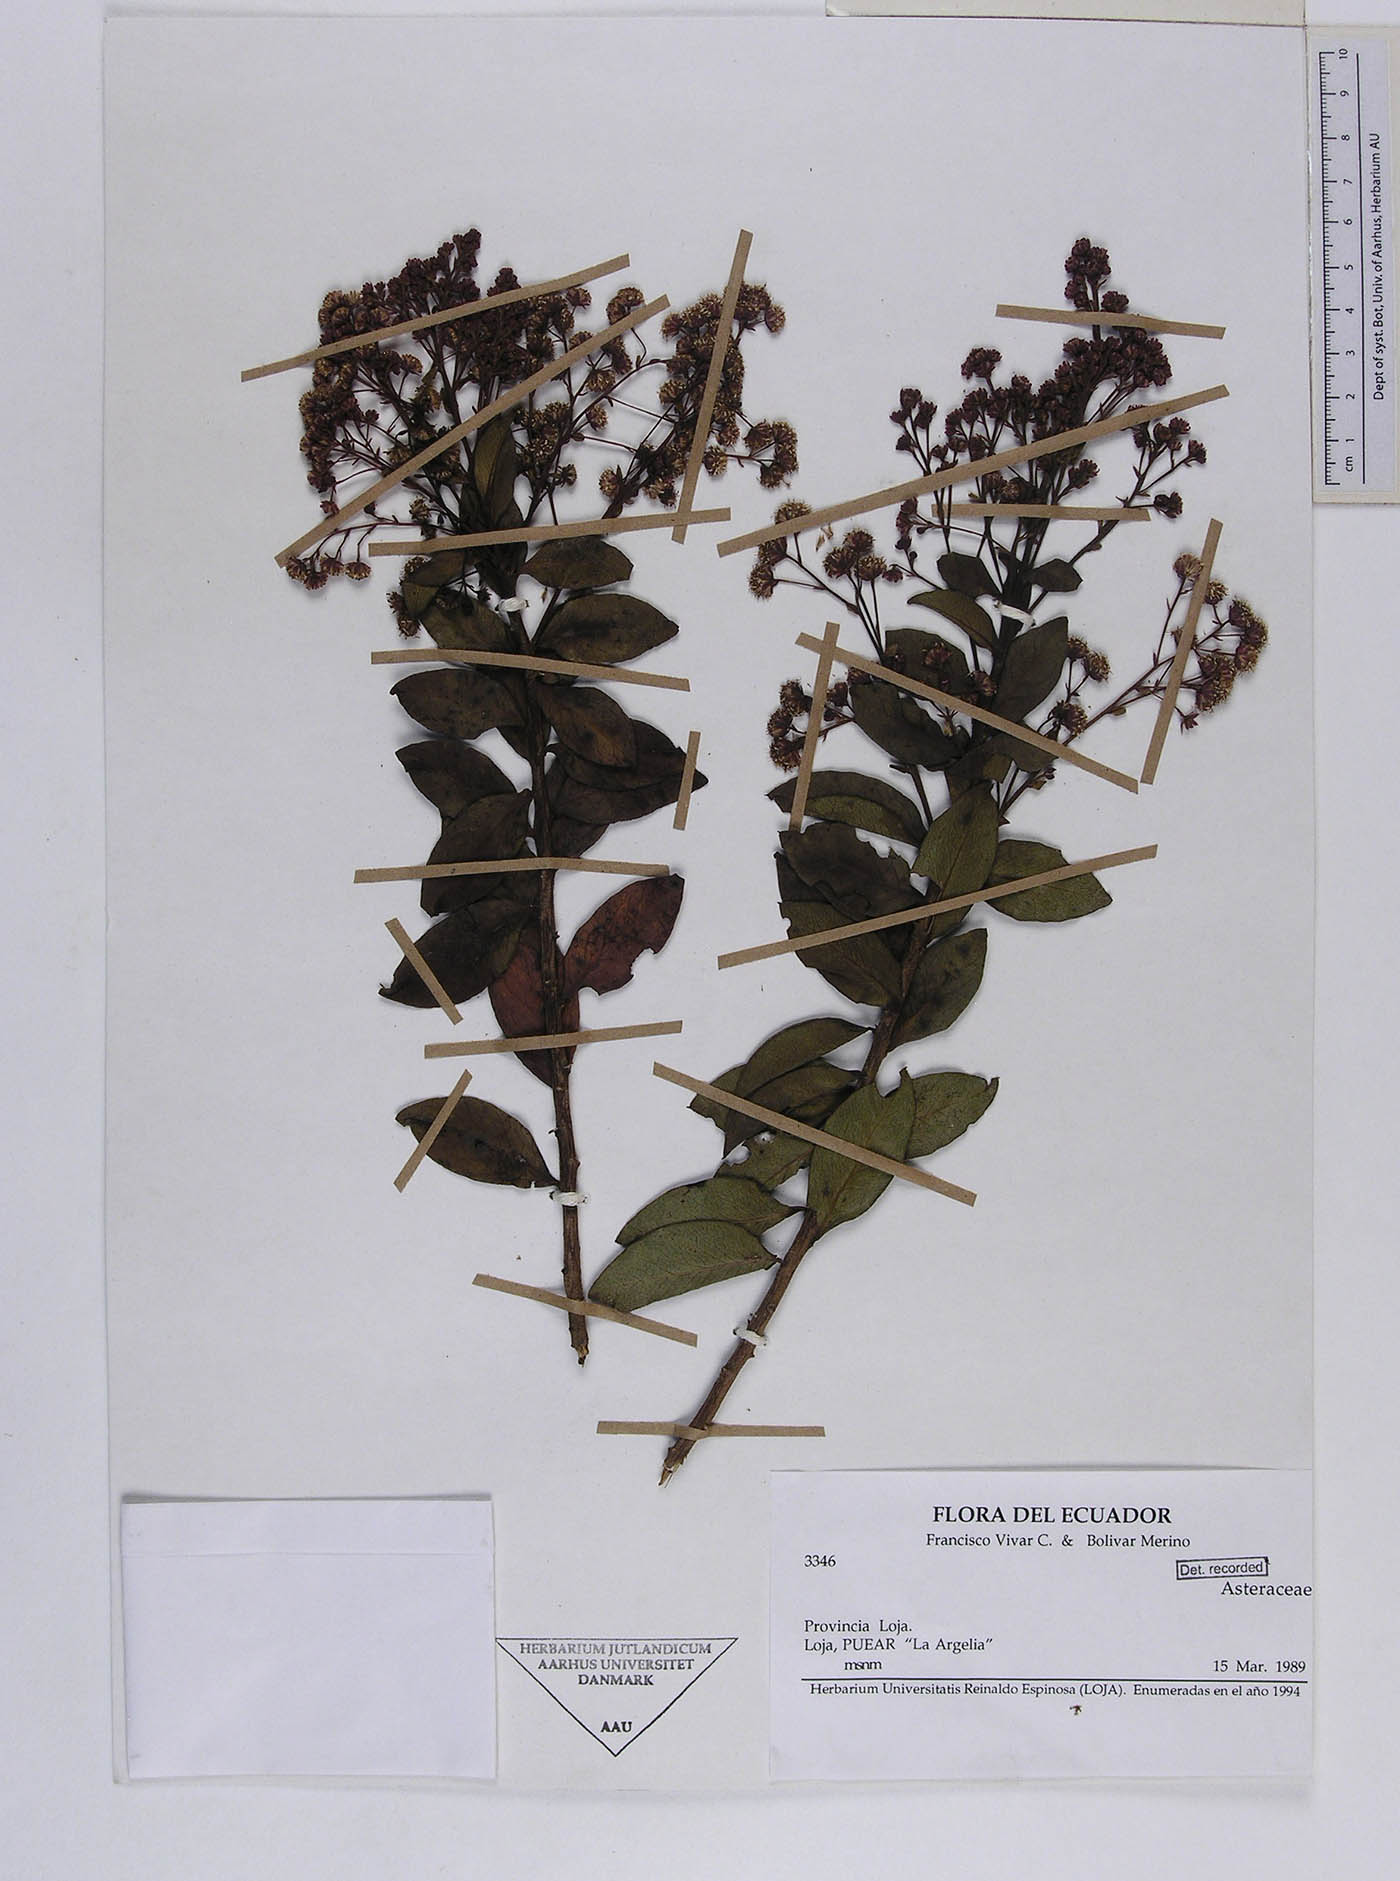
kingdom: Plantae
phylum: Tracheophyta
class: Magnoliopsida
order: Asterales
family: Asteraceae
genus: Baccharis
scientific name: Baccharis oblongifolia
